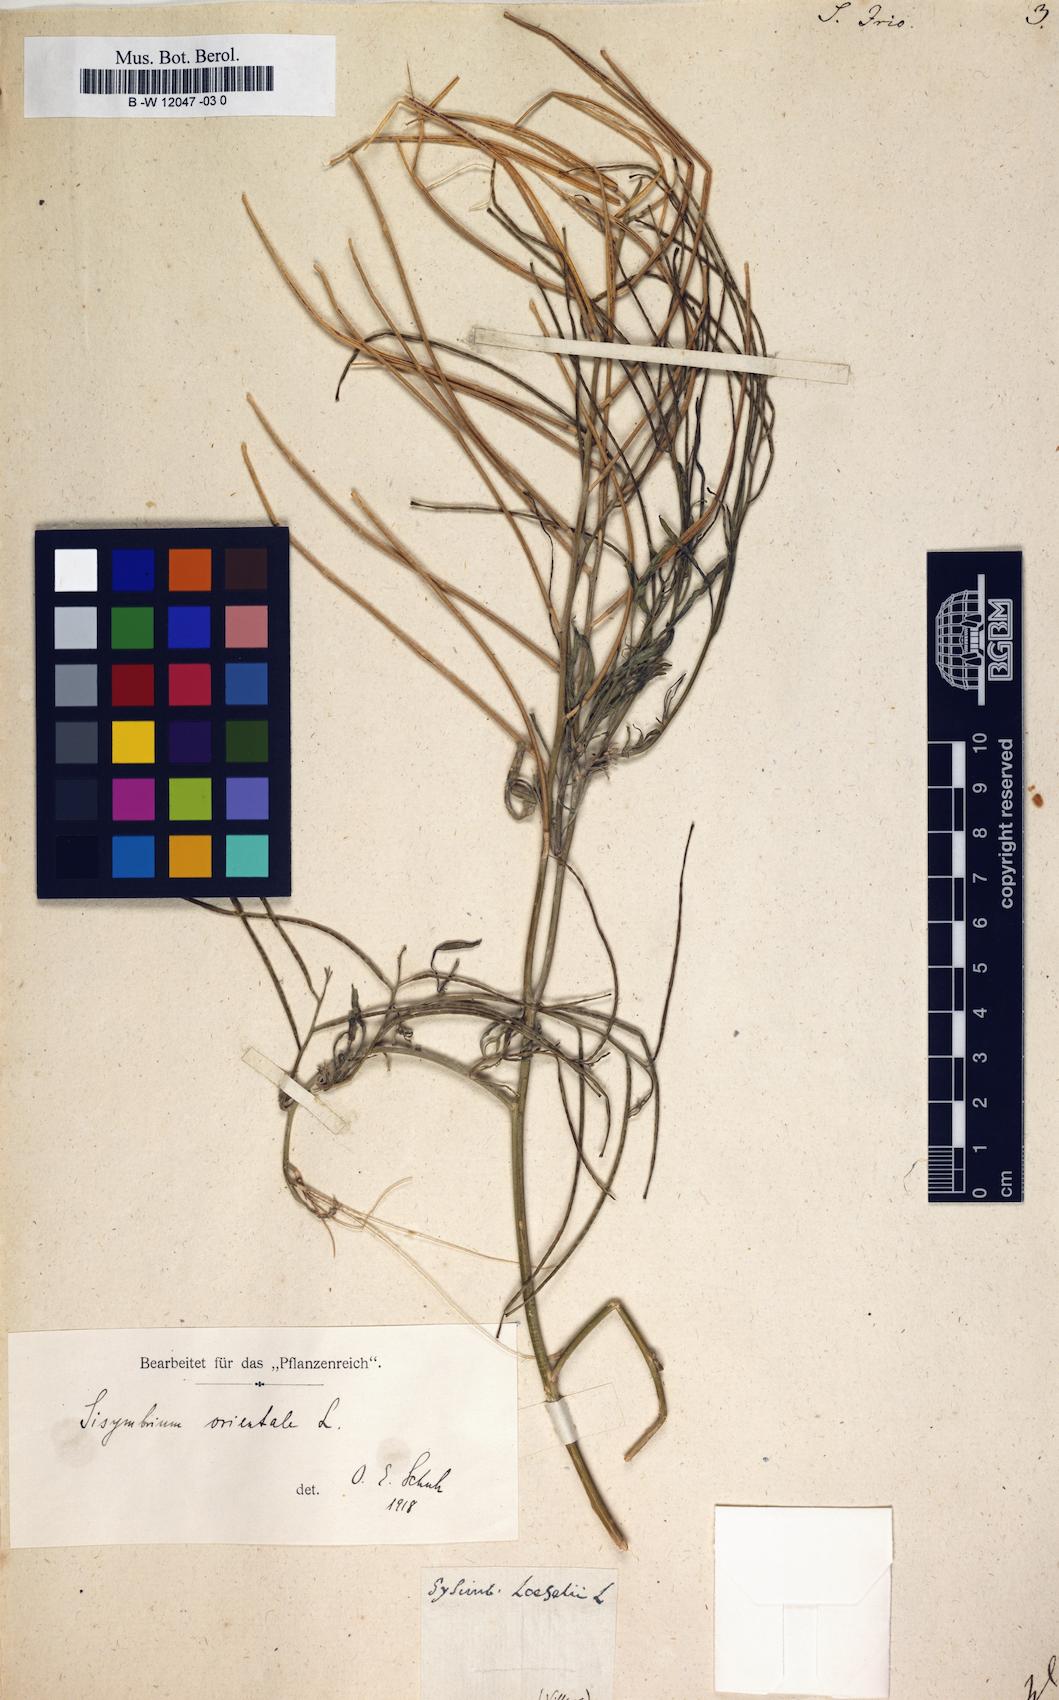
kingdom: Plantae
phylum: Tracheophyta
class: Magnoliopsida
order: Brassicales
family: Brassicaceae
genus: Sisymbrium
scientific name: Sisymbrium irio
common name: London rocket
